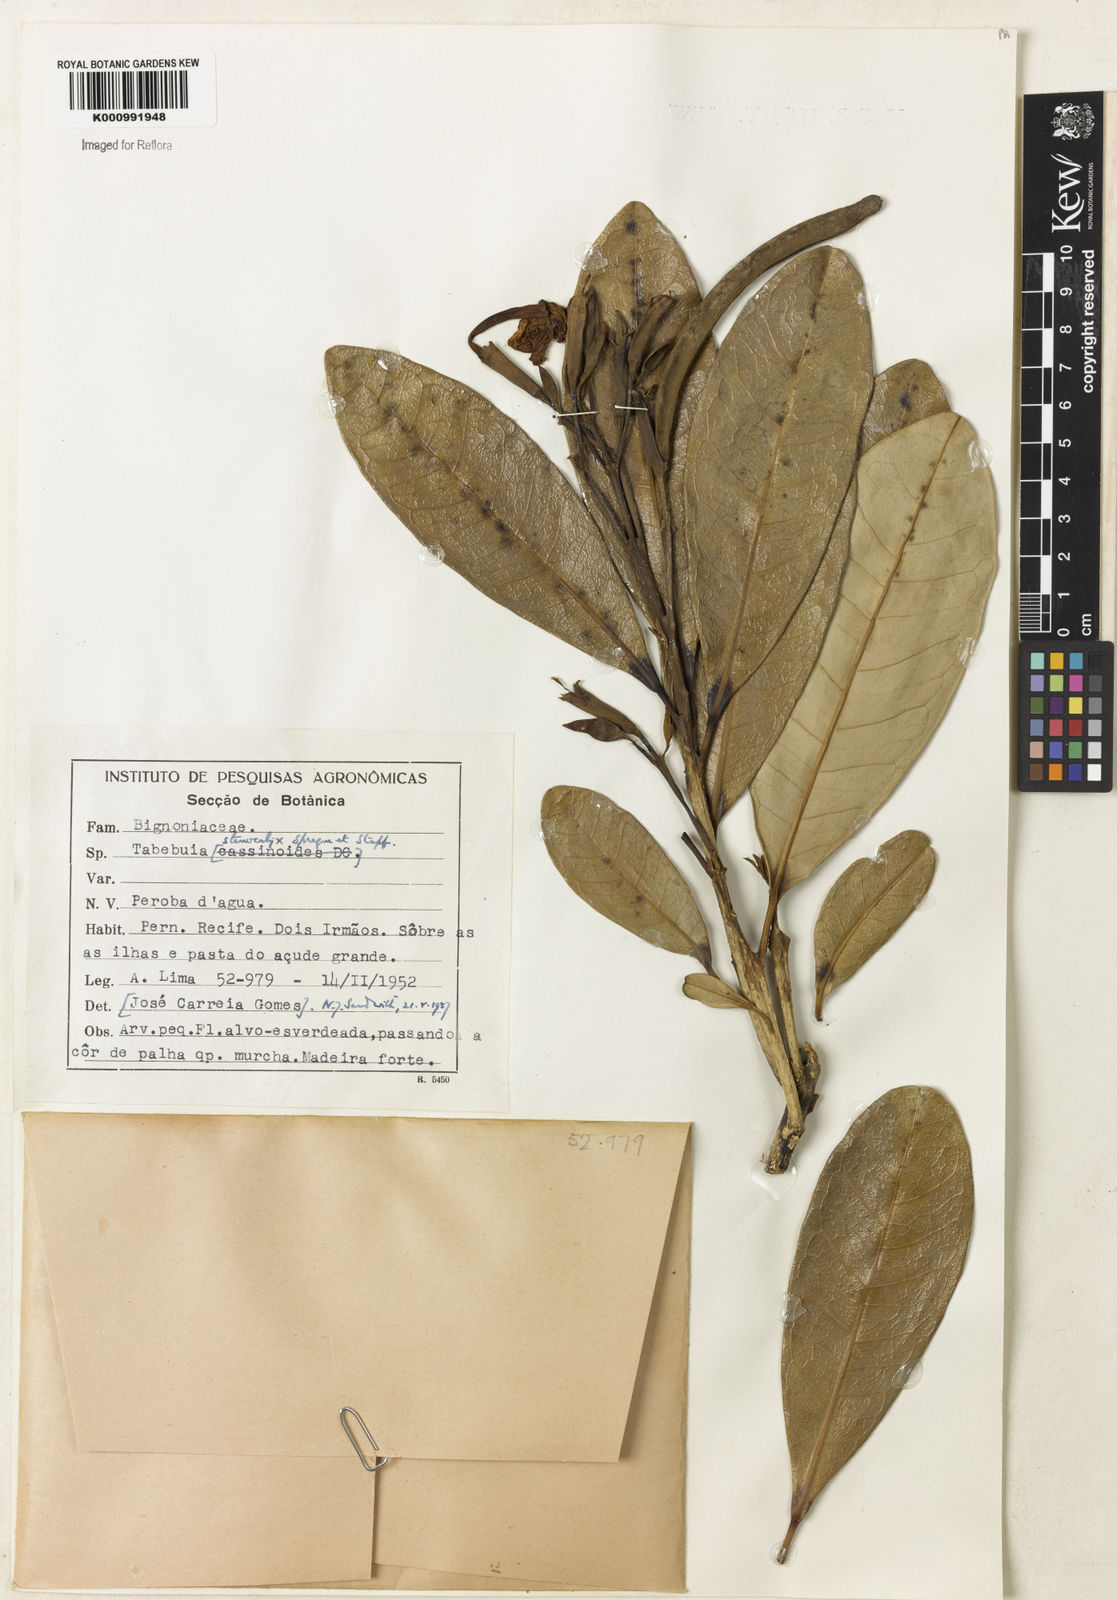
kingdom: Plantae
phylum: Tracheophyta
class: Magnoliopsida
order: Lamiales
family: Bignoniaceae
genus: Tabebuia
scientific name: Tabebuia stenocalyx
